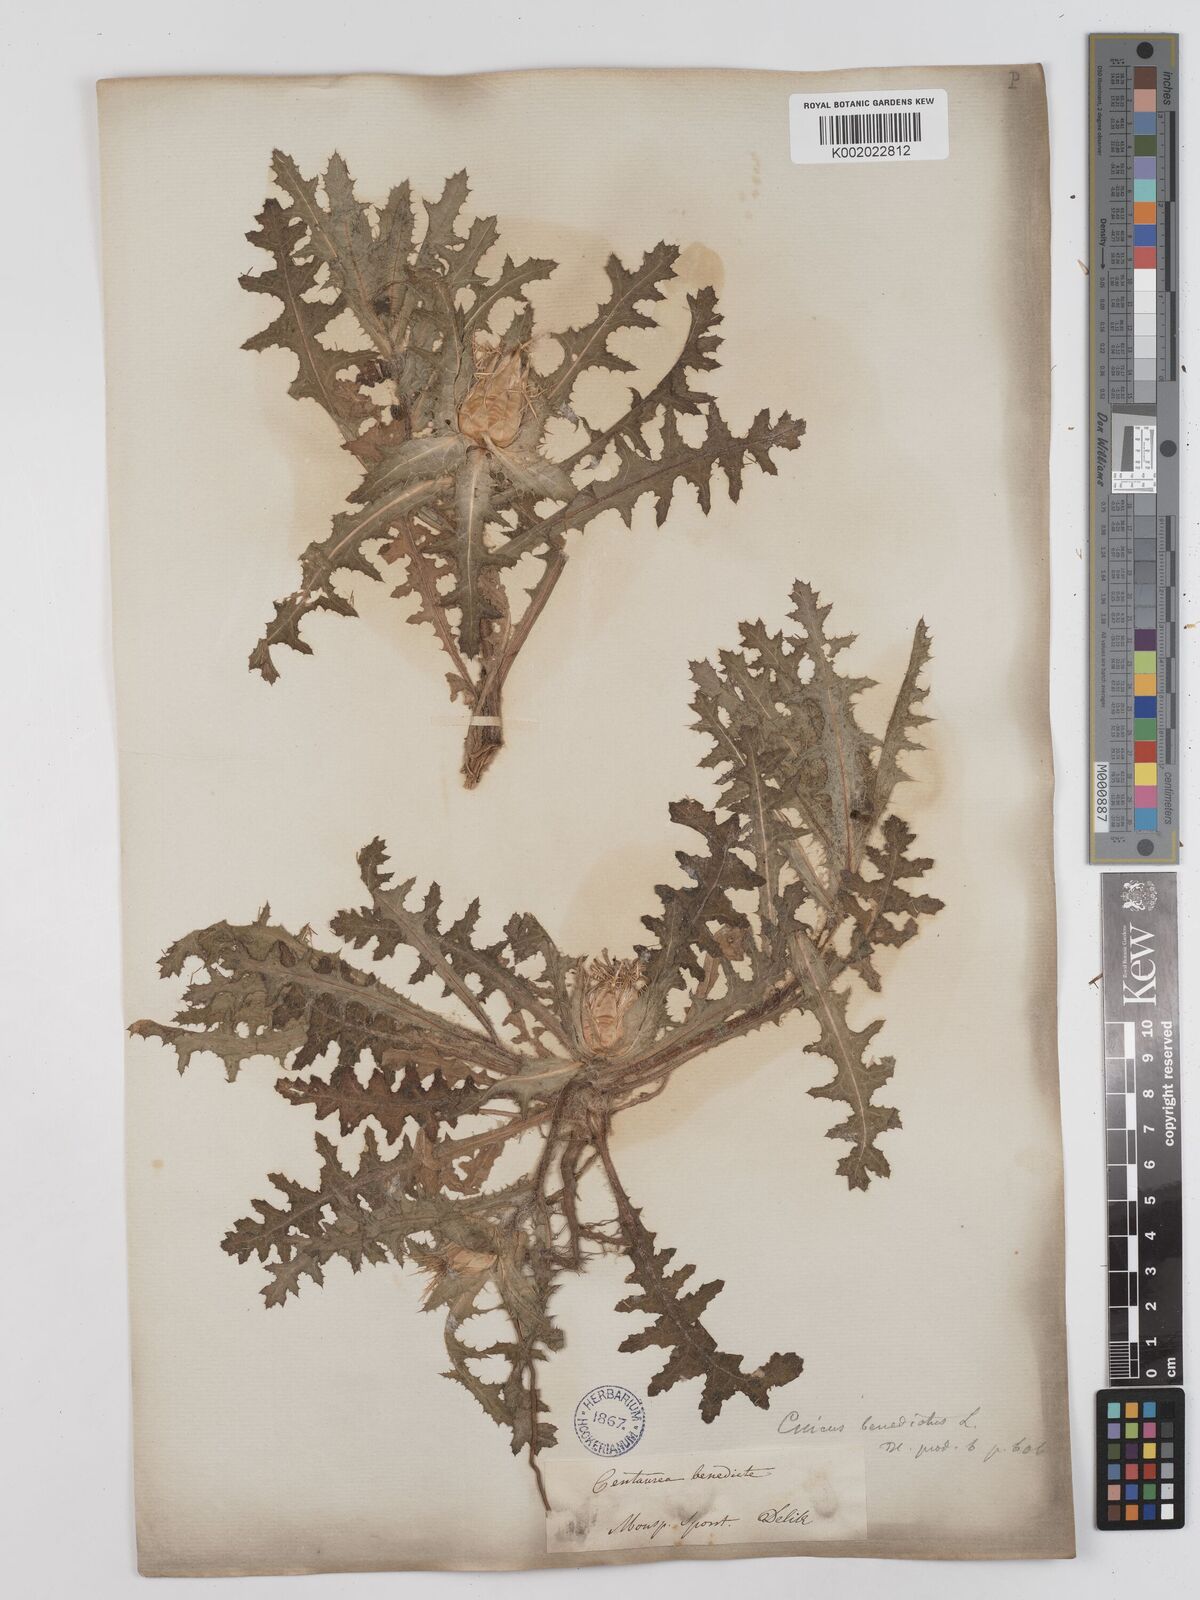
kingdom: Plantae
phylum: Tracheophyta
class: Magnoliopsida
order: Asterales
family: Asteraceae
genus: Centaurea
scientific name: Centaurea benedicta
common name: Blessed thistle
